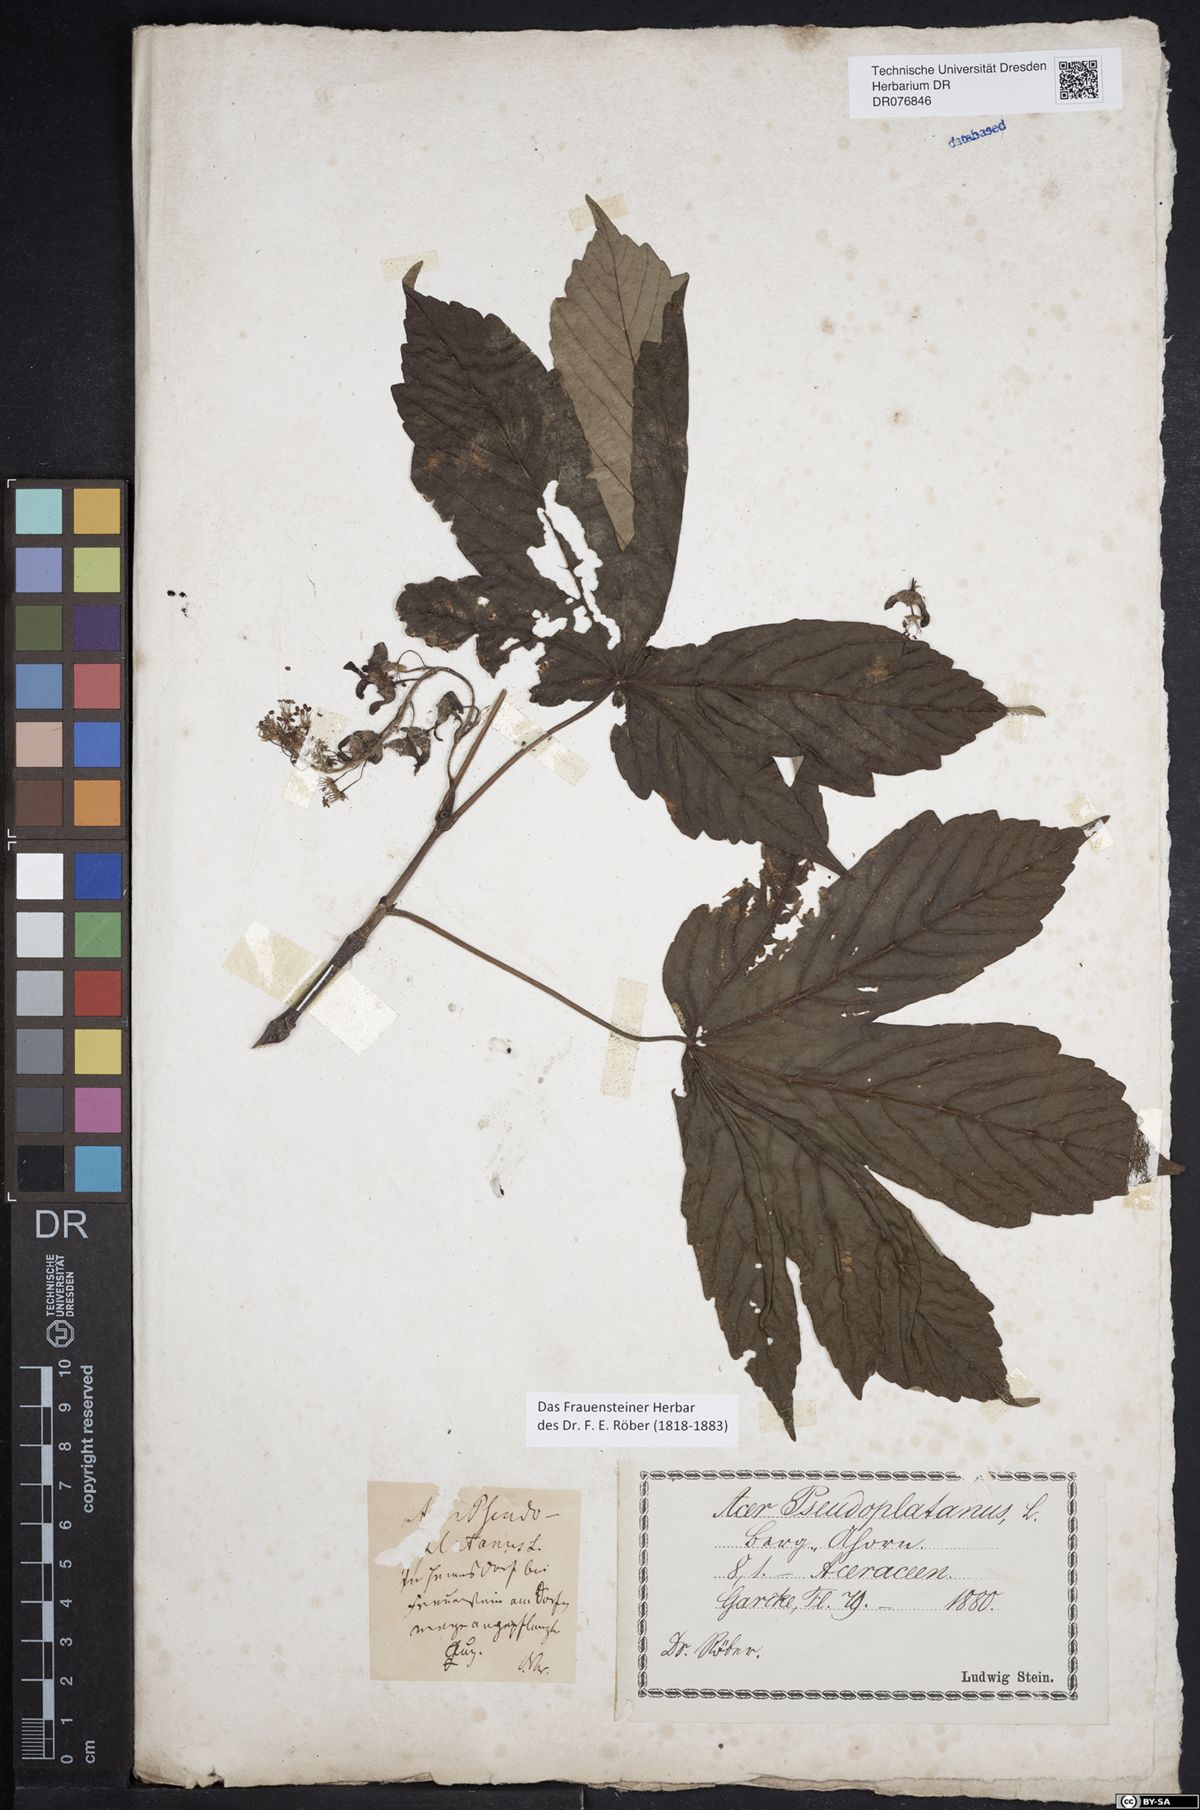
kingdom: Plantae
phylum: Tracheophyta
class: Magnoliopsida
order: Sapindales
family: Sapindaceae
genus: Acer
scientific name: Acer pseudoplatanus
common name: Sycamore
